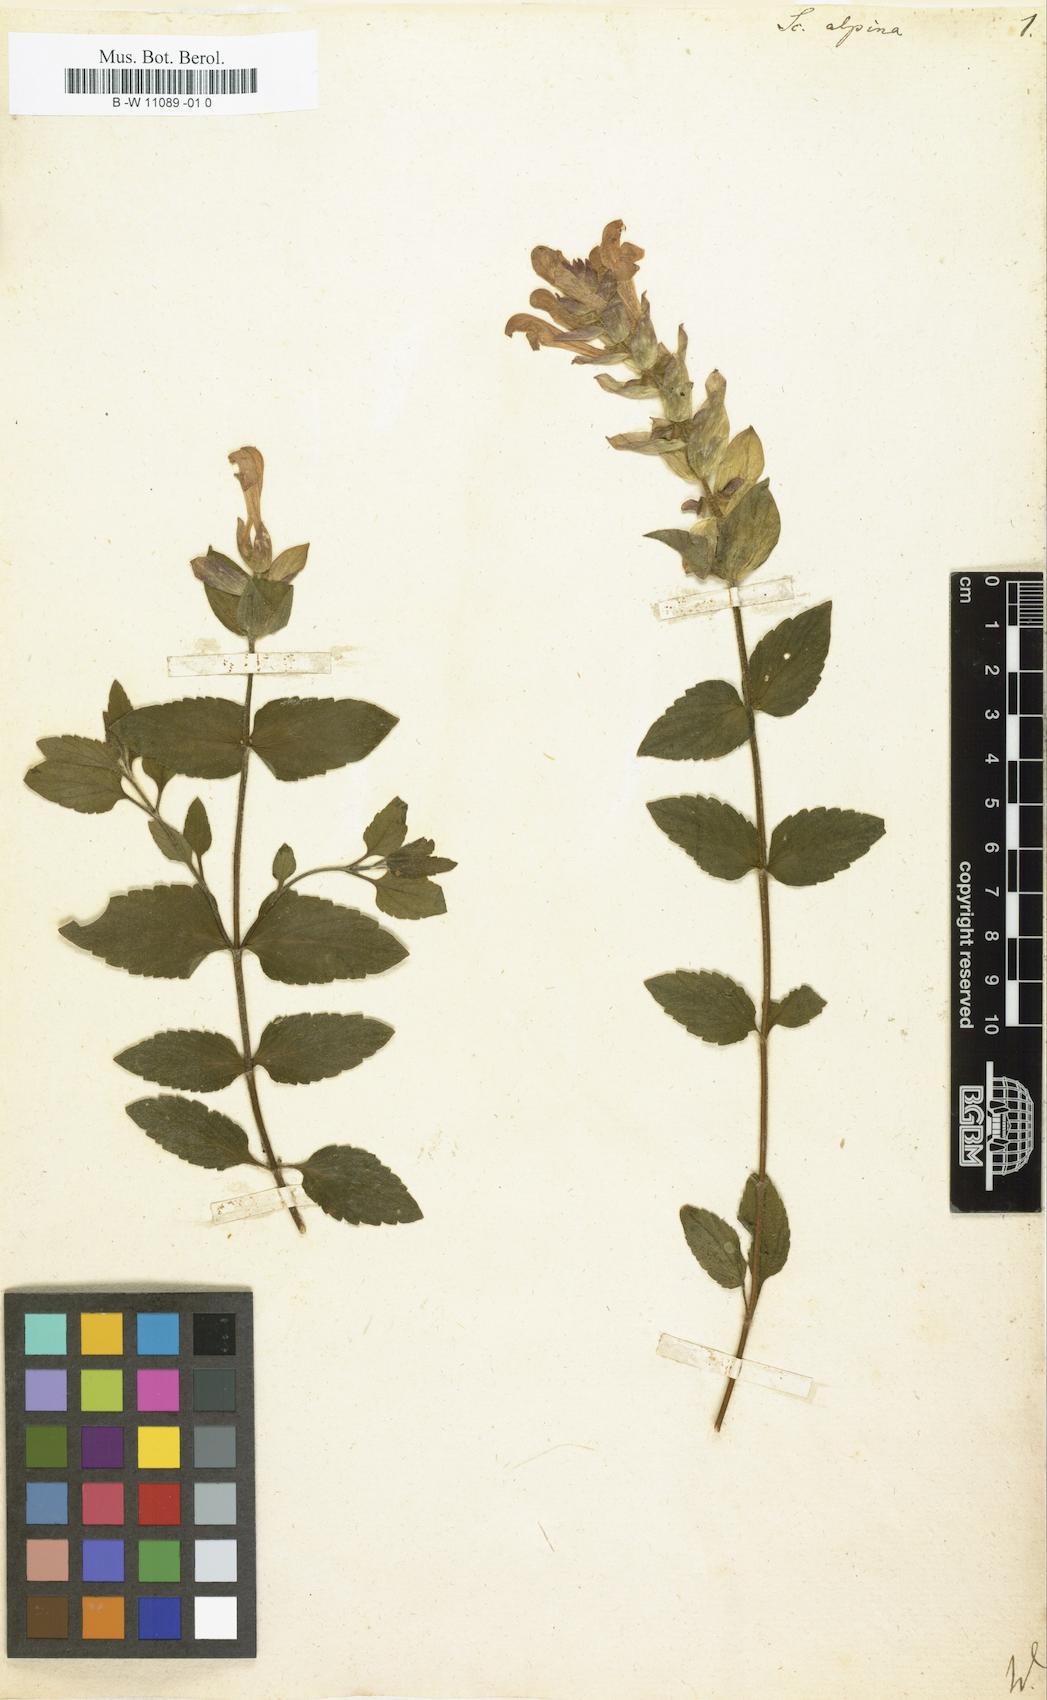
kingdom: Plantae
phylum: Tracheophyta
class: Magnoliopsida
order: Lamiales
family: Lamiaceae
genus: Scutellaria
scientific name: Scutellaria alpina
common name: Alpine scullcap
